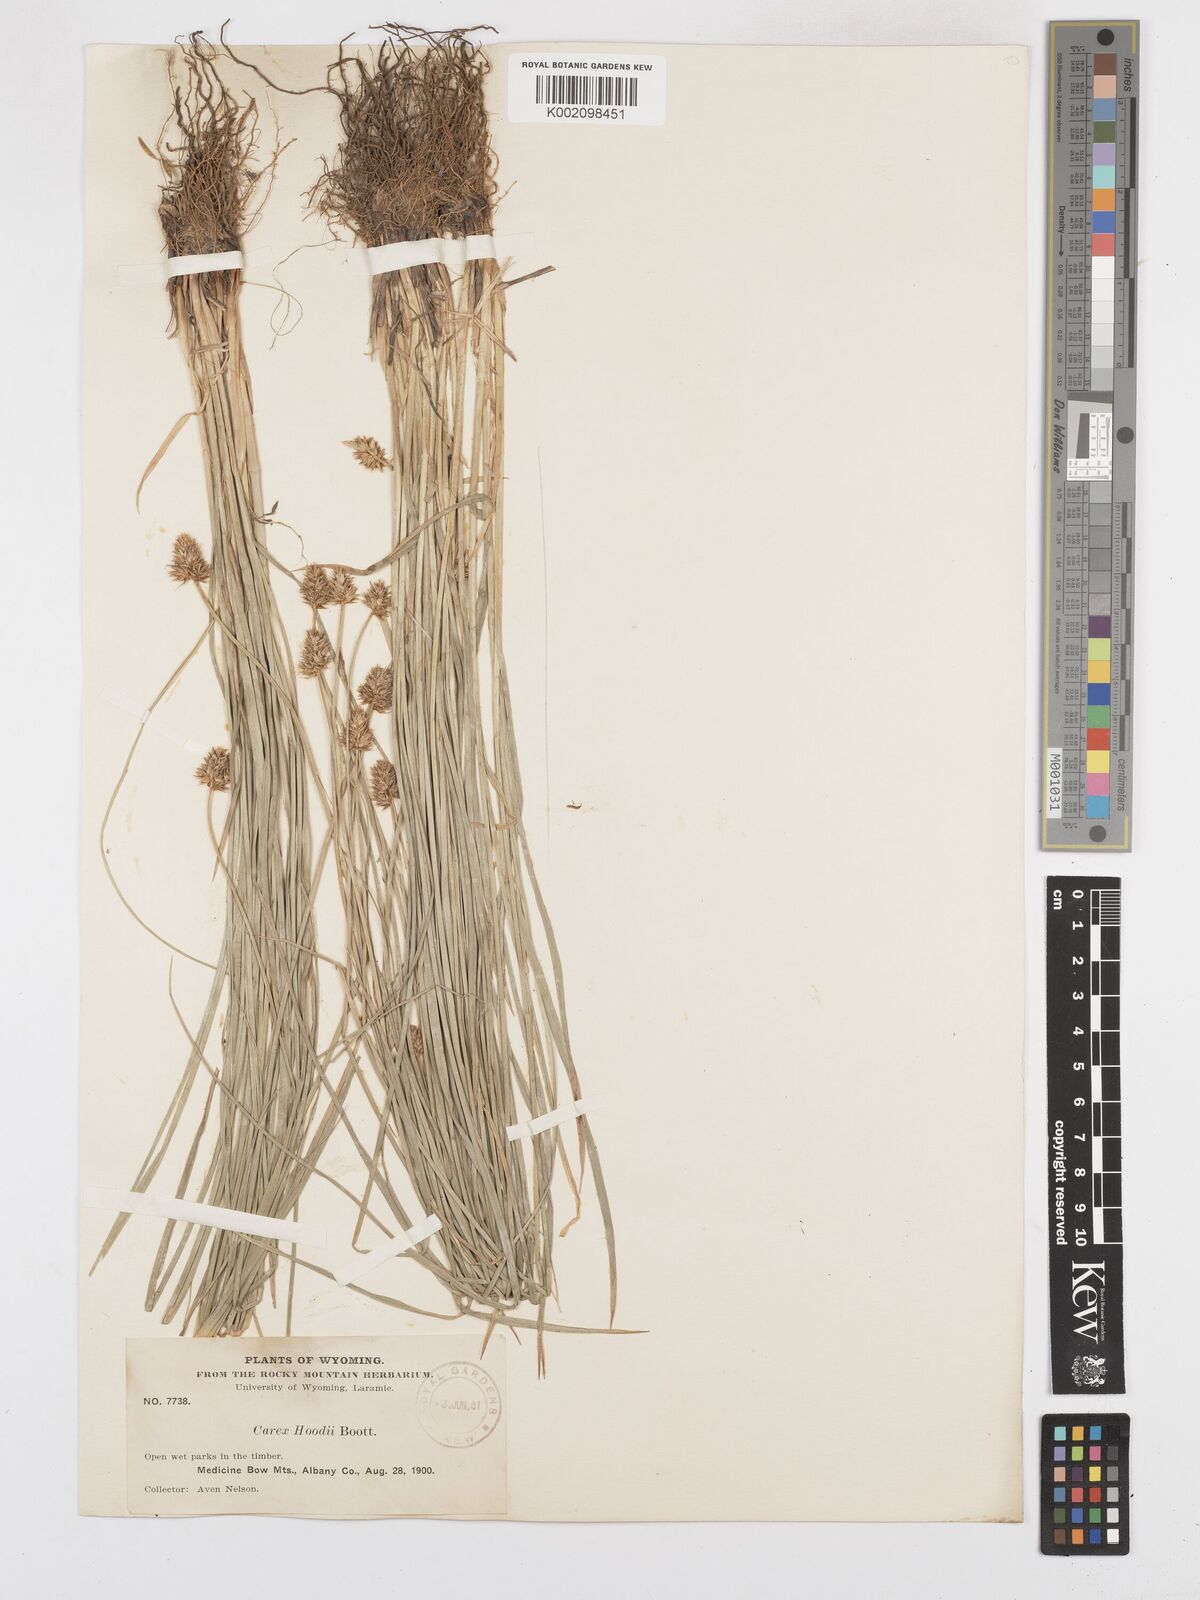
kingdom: Plantae
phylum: Tracheophyta
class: Liliopsida
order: Poales
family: Cyperaceae
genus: Carex
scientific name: Carex hoodii
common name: Hood's sedge
